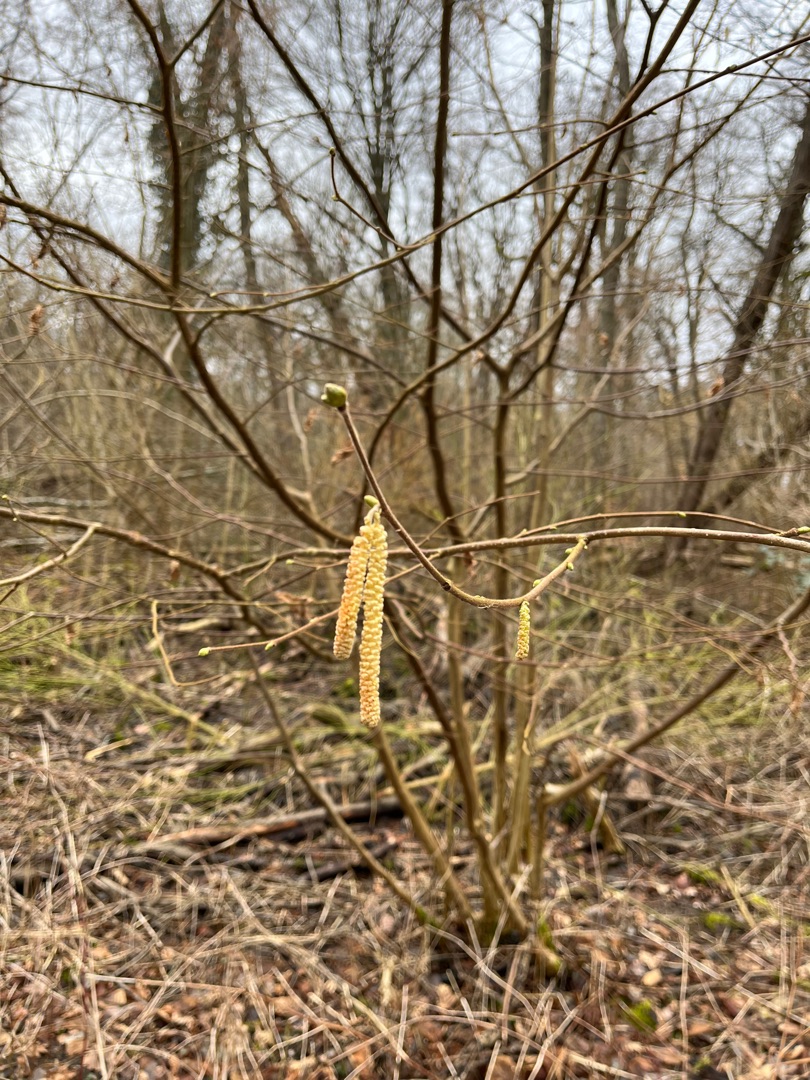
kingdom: Plantae
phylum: Tracheophyta
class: Magnoliopsida
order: Fagales
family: Betulaceae
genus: Corylus
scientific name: Corylus avellana
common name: Hassel
